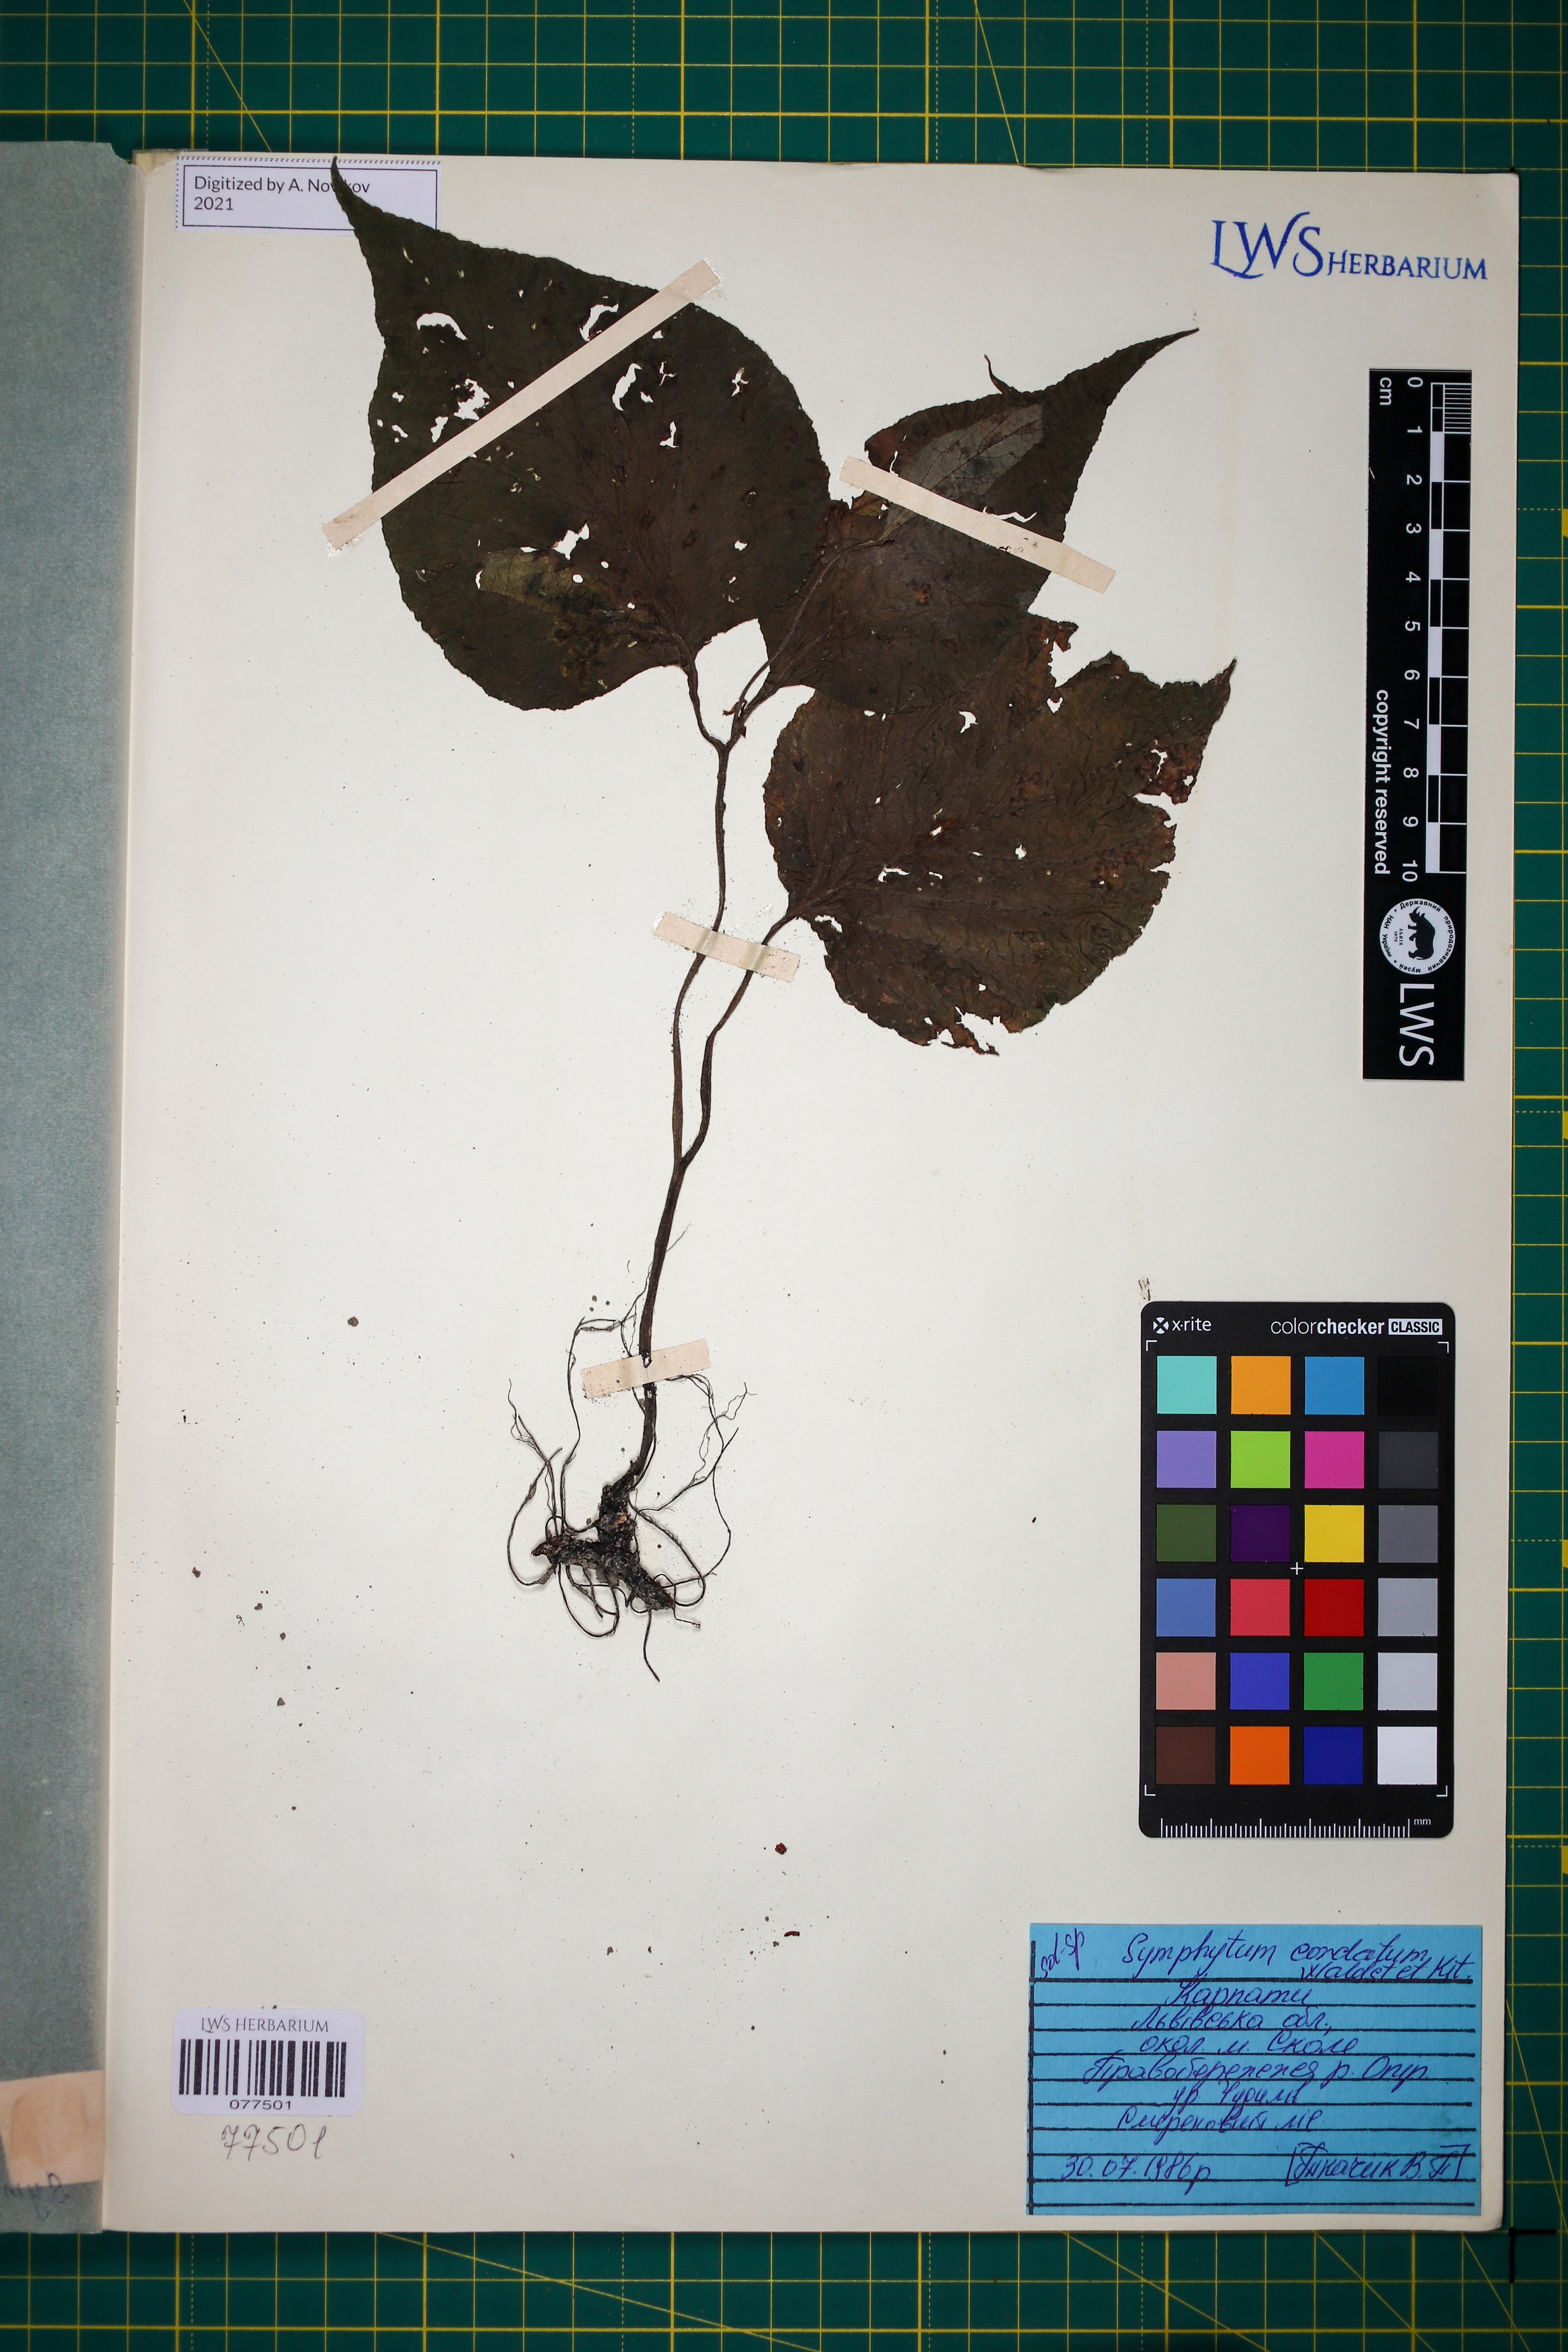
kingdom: Plantae
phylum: Tracheophyta
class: Magnoliopsida
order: Boraginales
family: Boraginaceae
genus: Symphytum
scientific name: Symphytum cordatum
